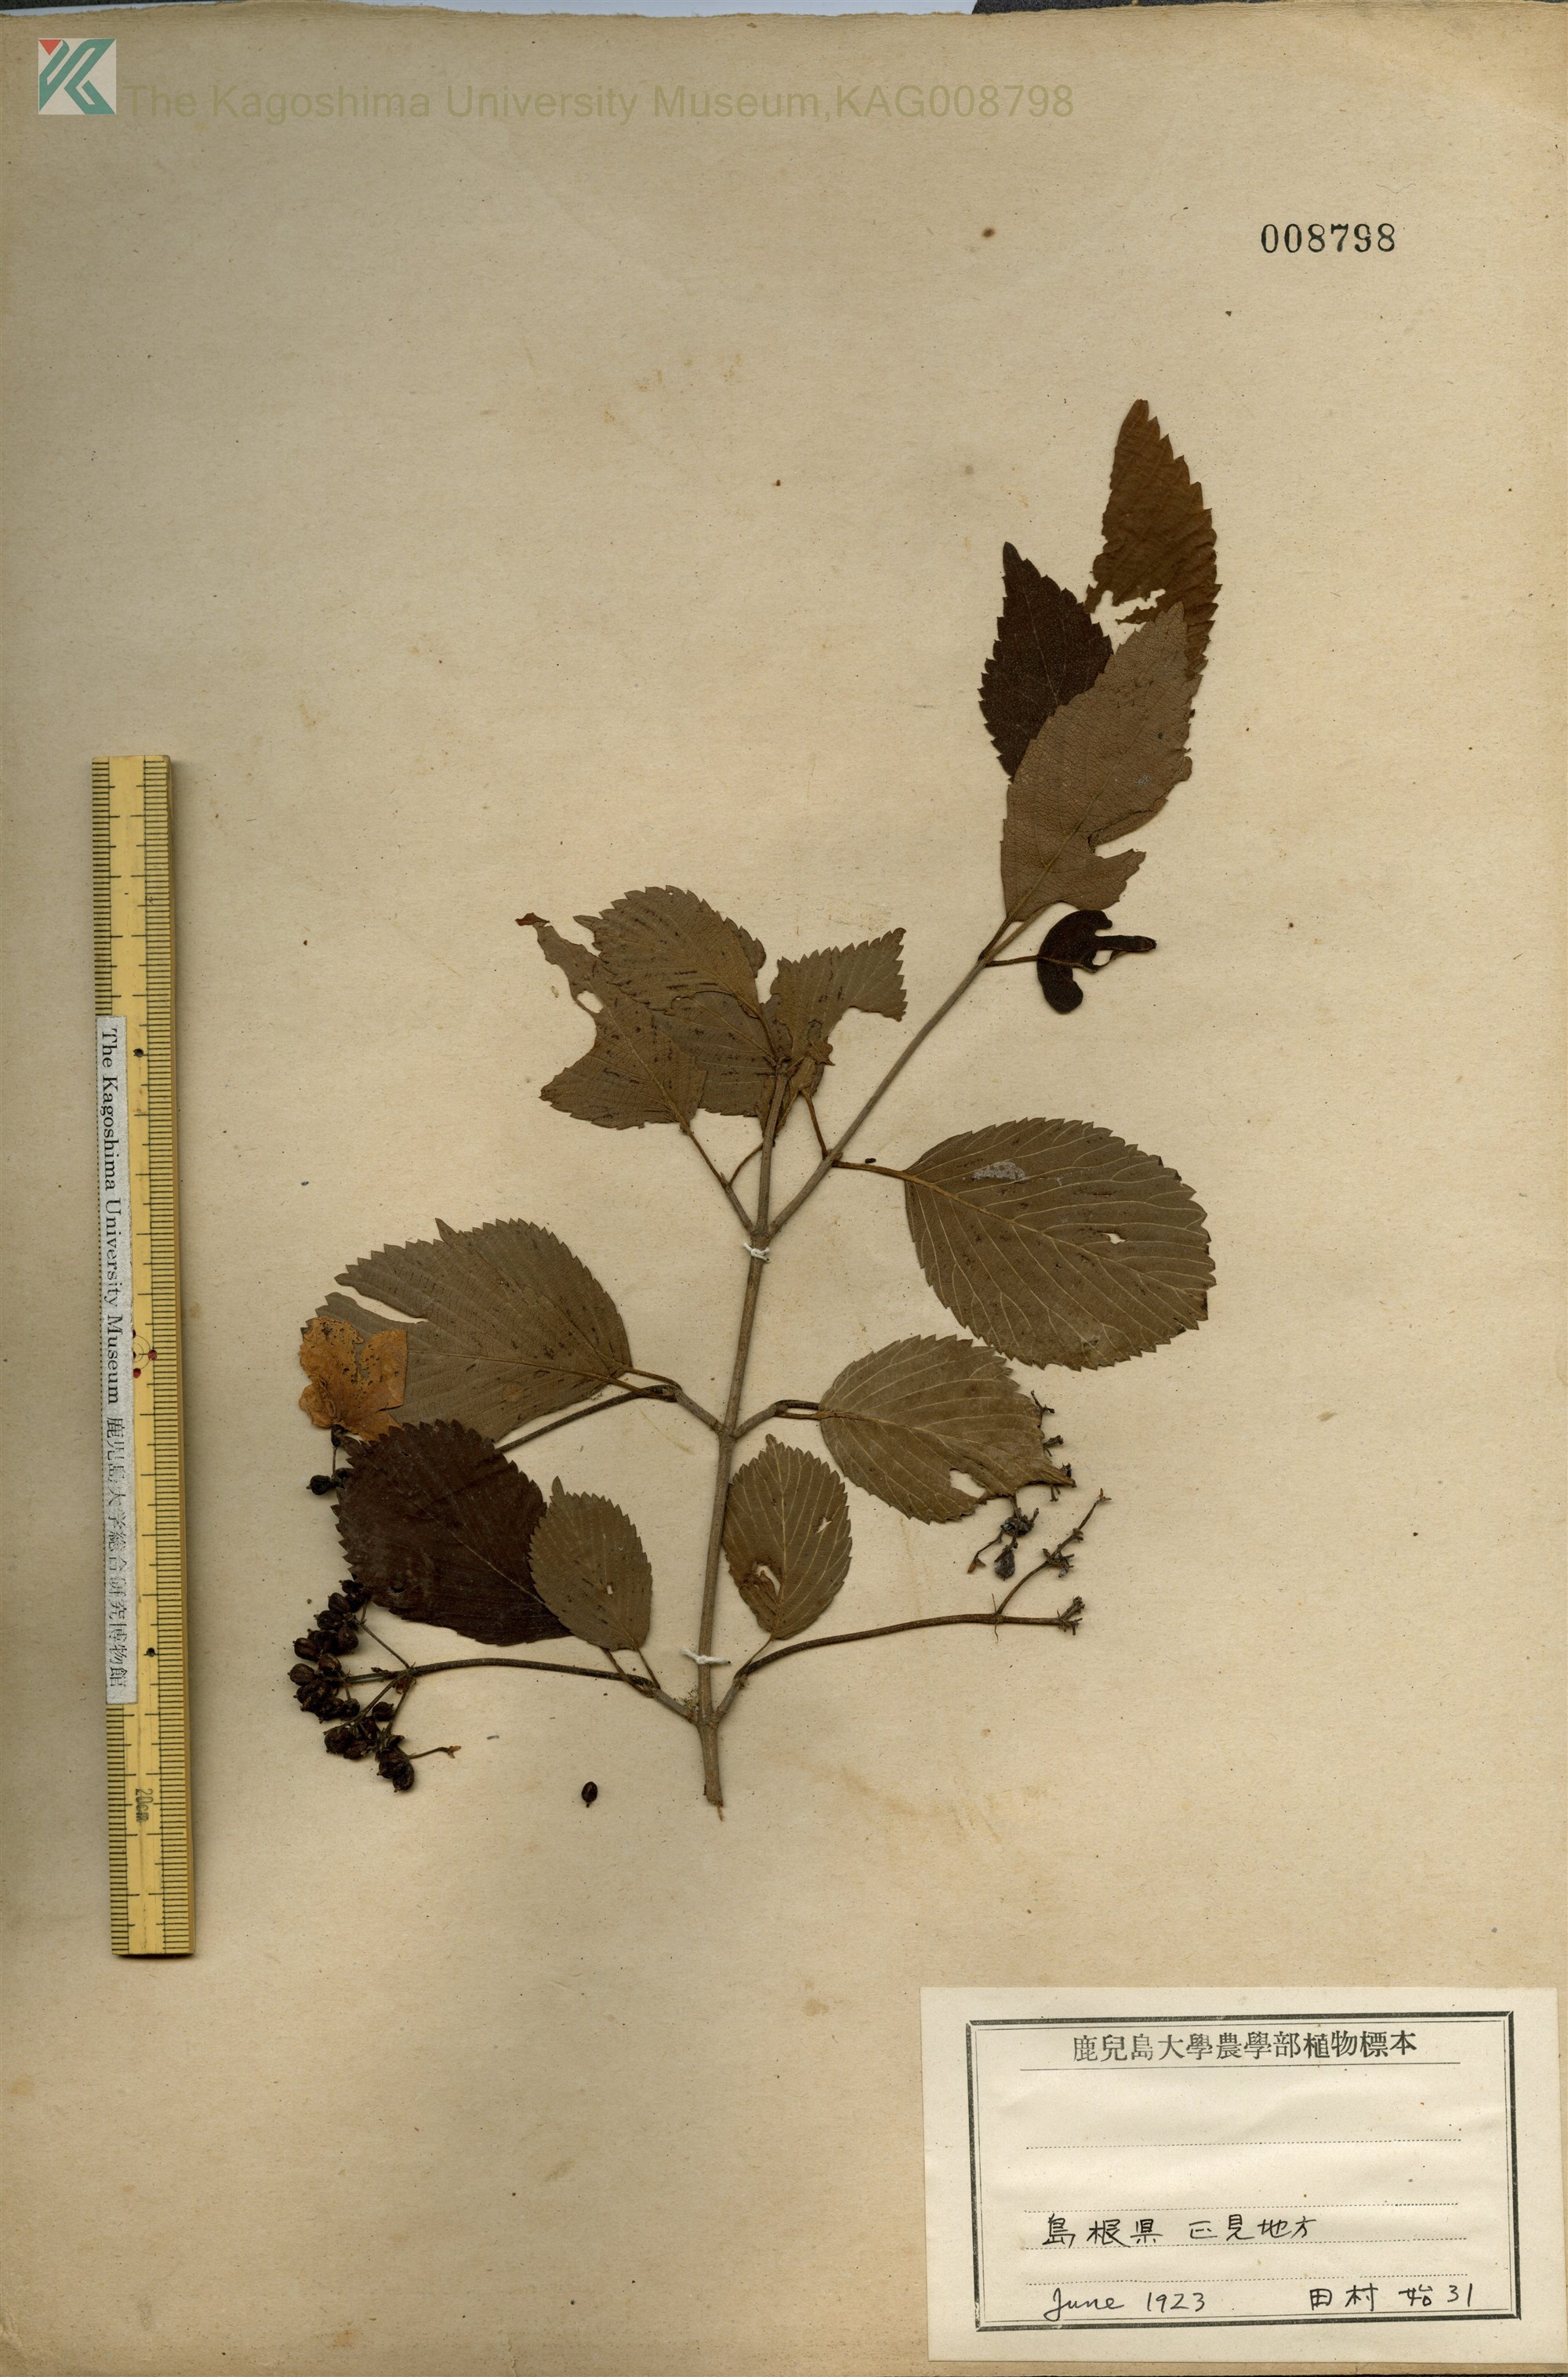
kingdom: Plantae
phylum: Tracheophyta
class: Magnoliopsida
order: Dipsacales
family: Viburnaceae
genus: Viburnum
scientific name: Viburnum plicatum
